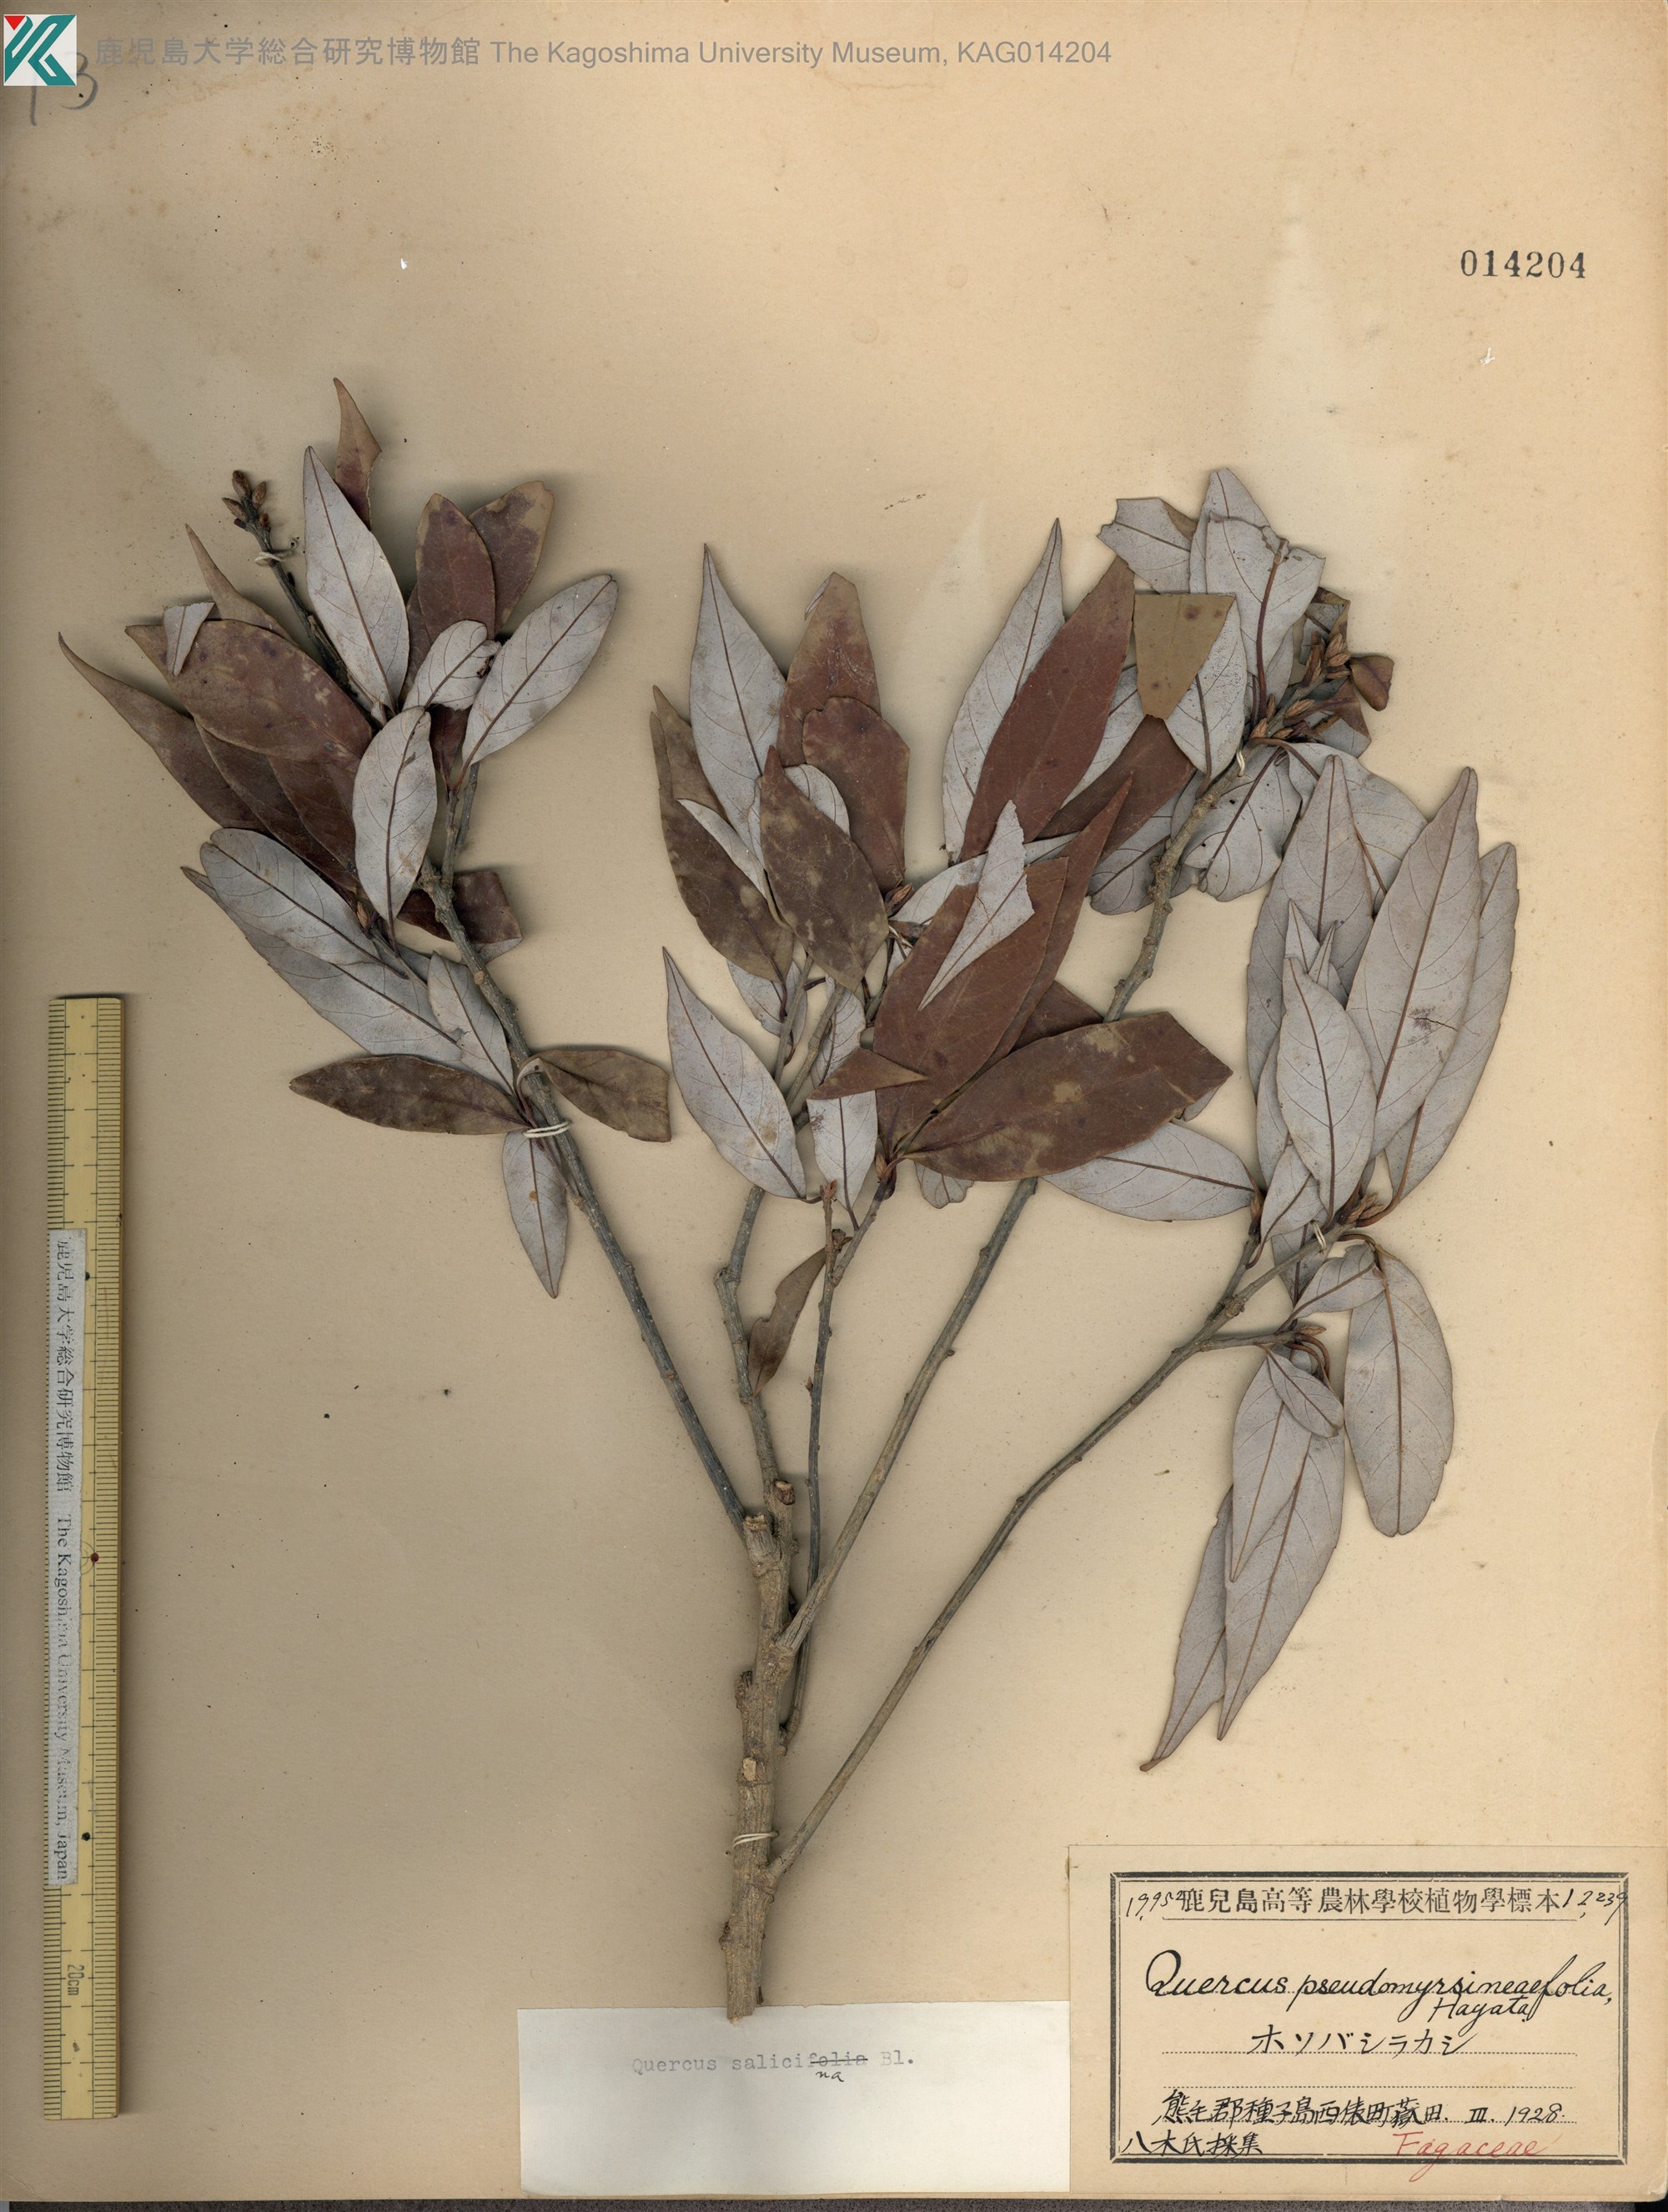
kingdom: Plantae
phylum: Tracheophyta
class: Magnoliopsida
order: Fagales
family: Fagaceae
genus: Quercus
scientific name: Quercus salicina
